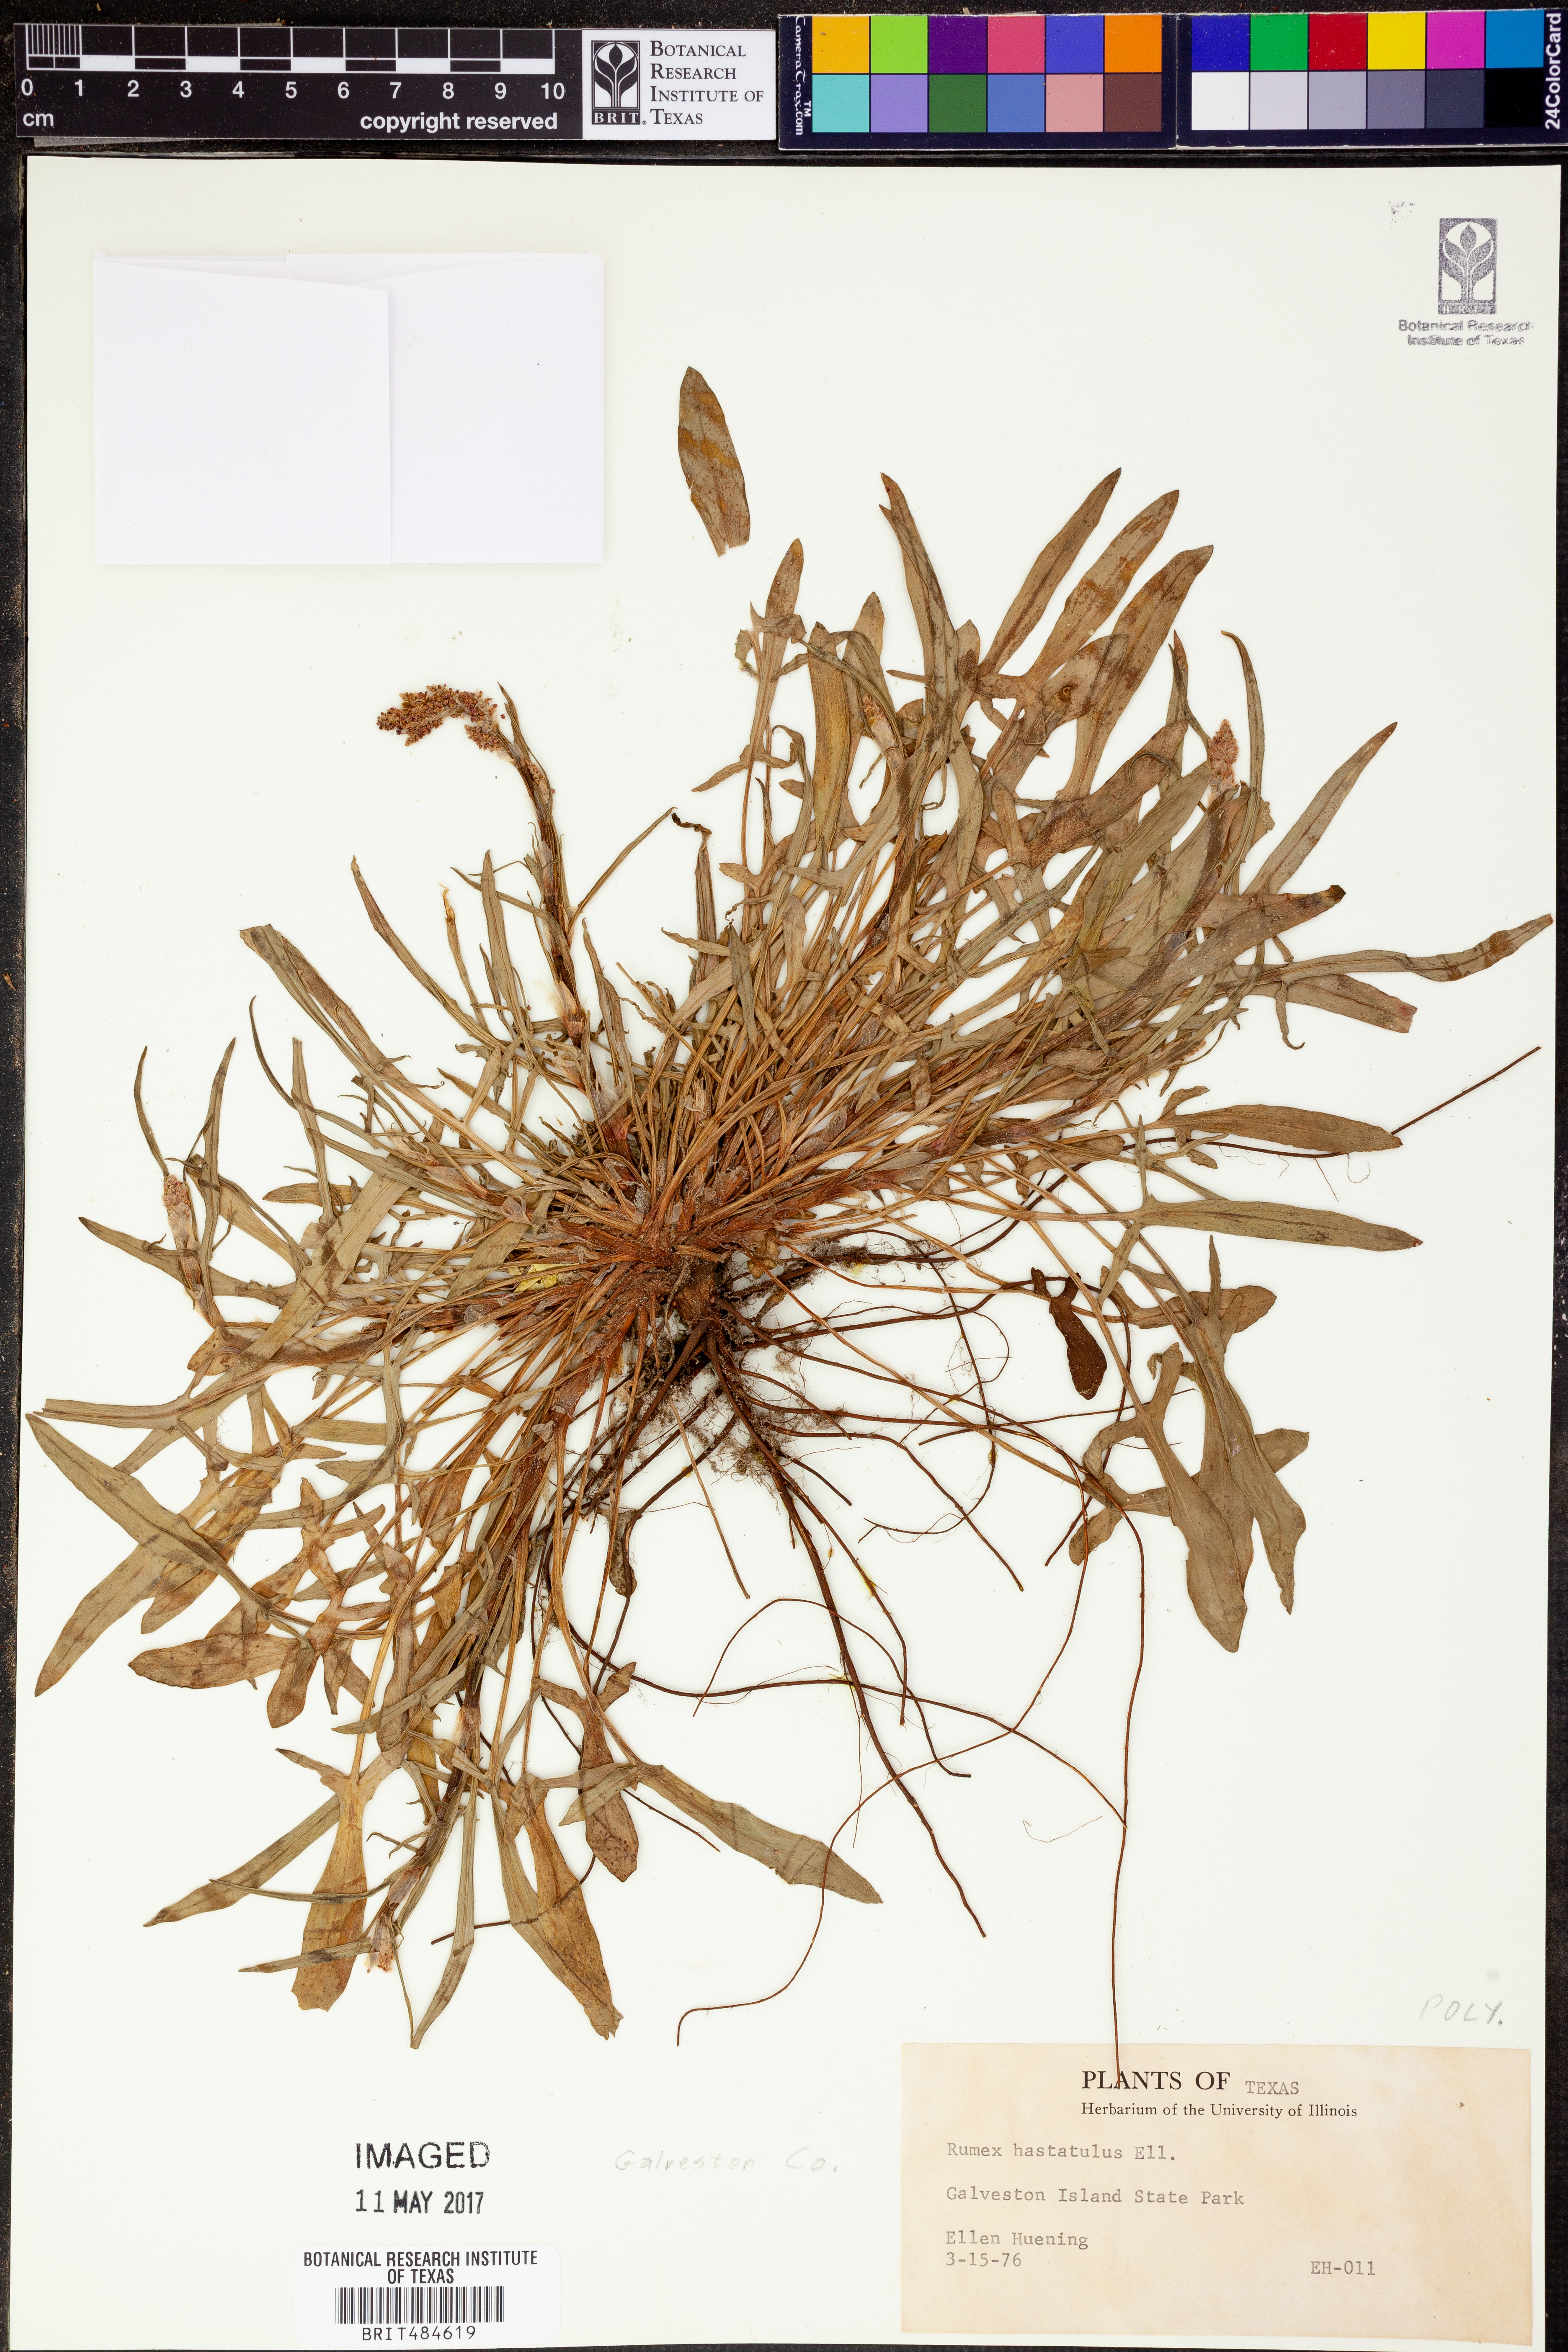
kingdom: Plantae
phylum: Tracheophyta
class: Magnoliopsida
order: Caryophyllales
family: Polygonaceae
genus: Rumex
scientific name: Rumex hastatulus
